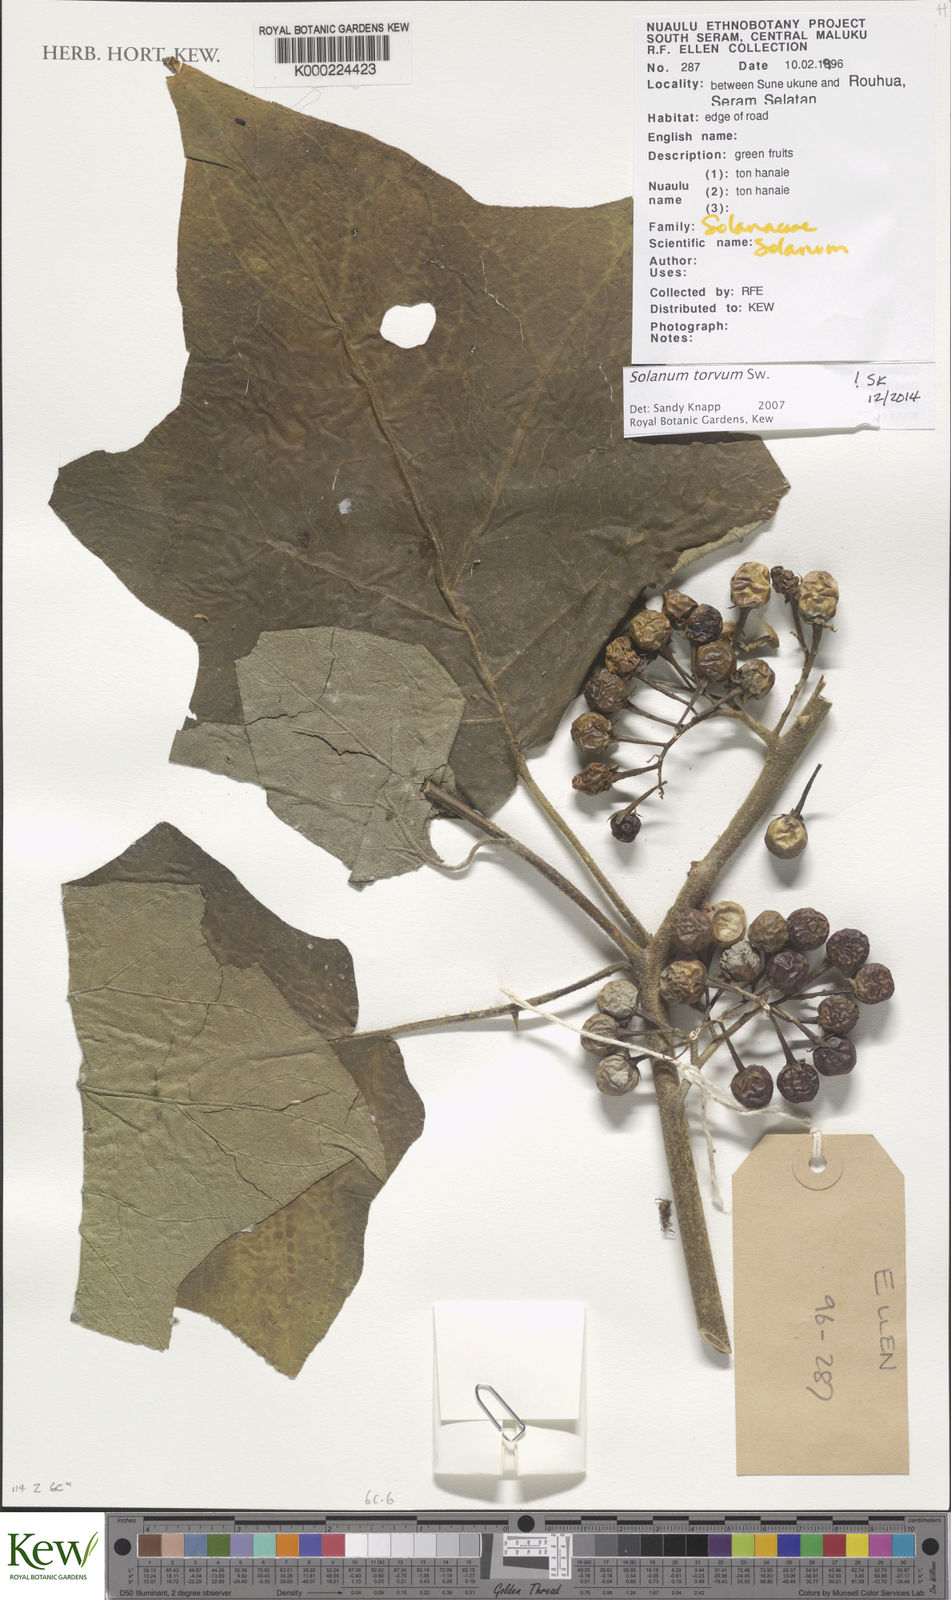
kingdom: Plantae
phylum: Tracheophyta
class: Magnoliopsida
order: Solanales
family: Solanaceae
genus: Solanum
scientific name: Solanum torvum
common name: Turkey berry
